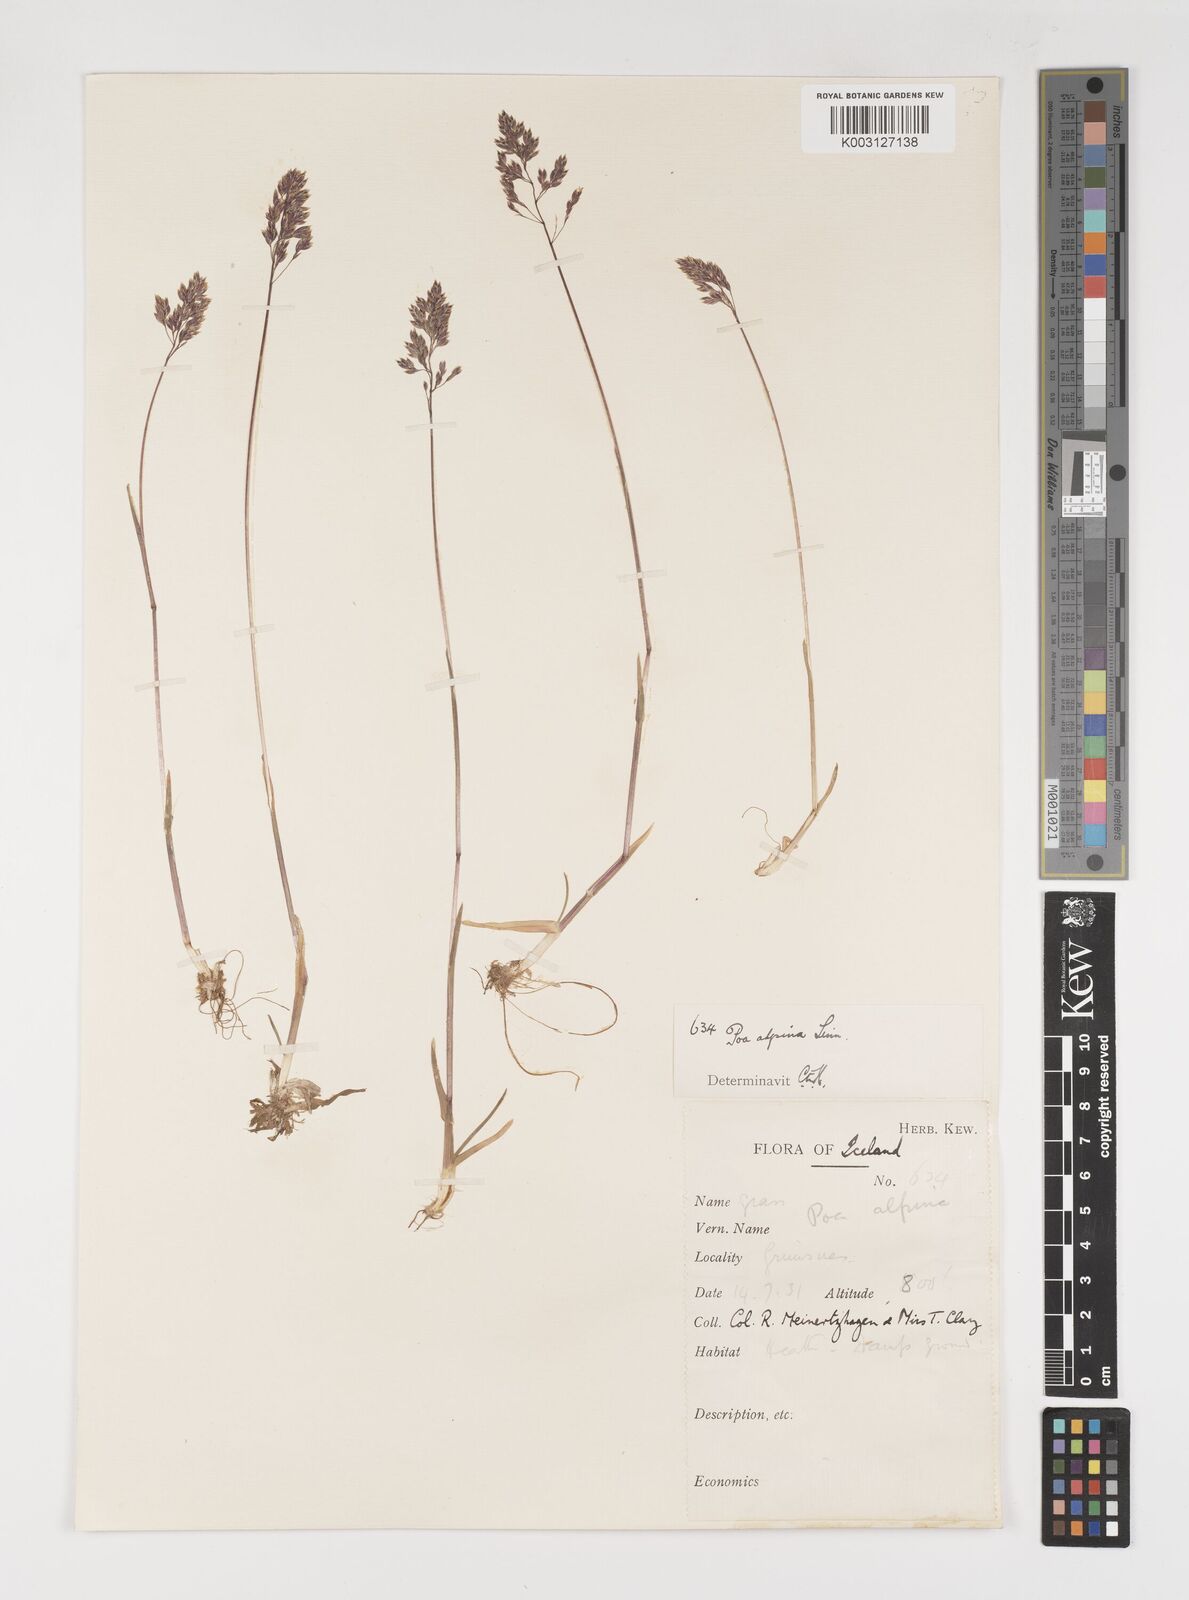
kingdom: Plantae
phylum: Tracheophyta
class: Liliopsida
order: Poales
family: Poaceae
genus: Poa
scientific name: Poa alpina
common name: Alpine bluegrass
